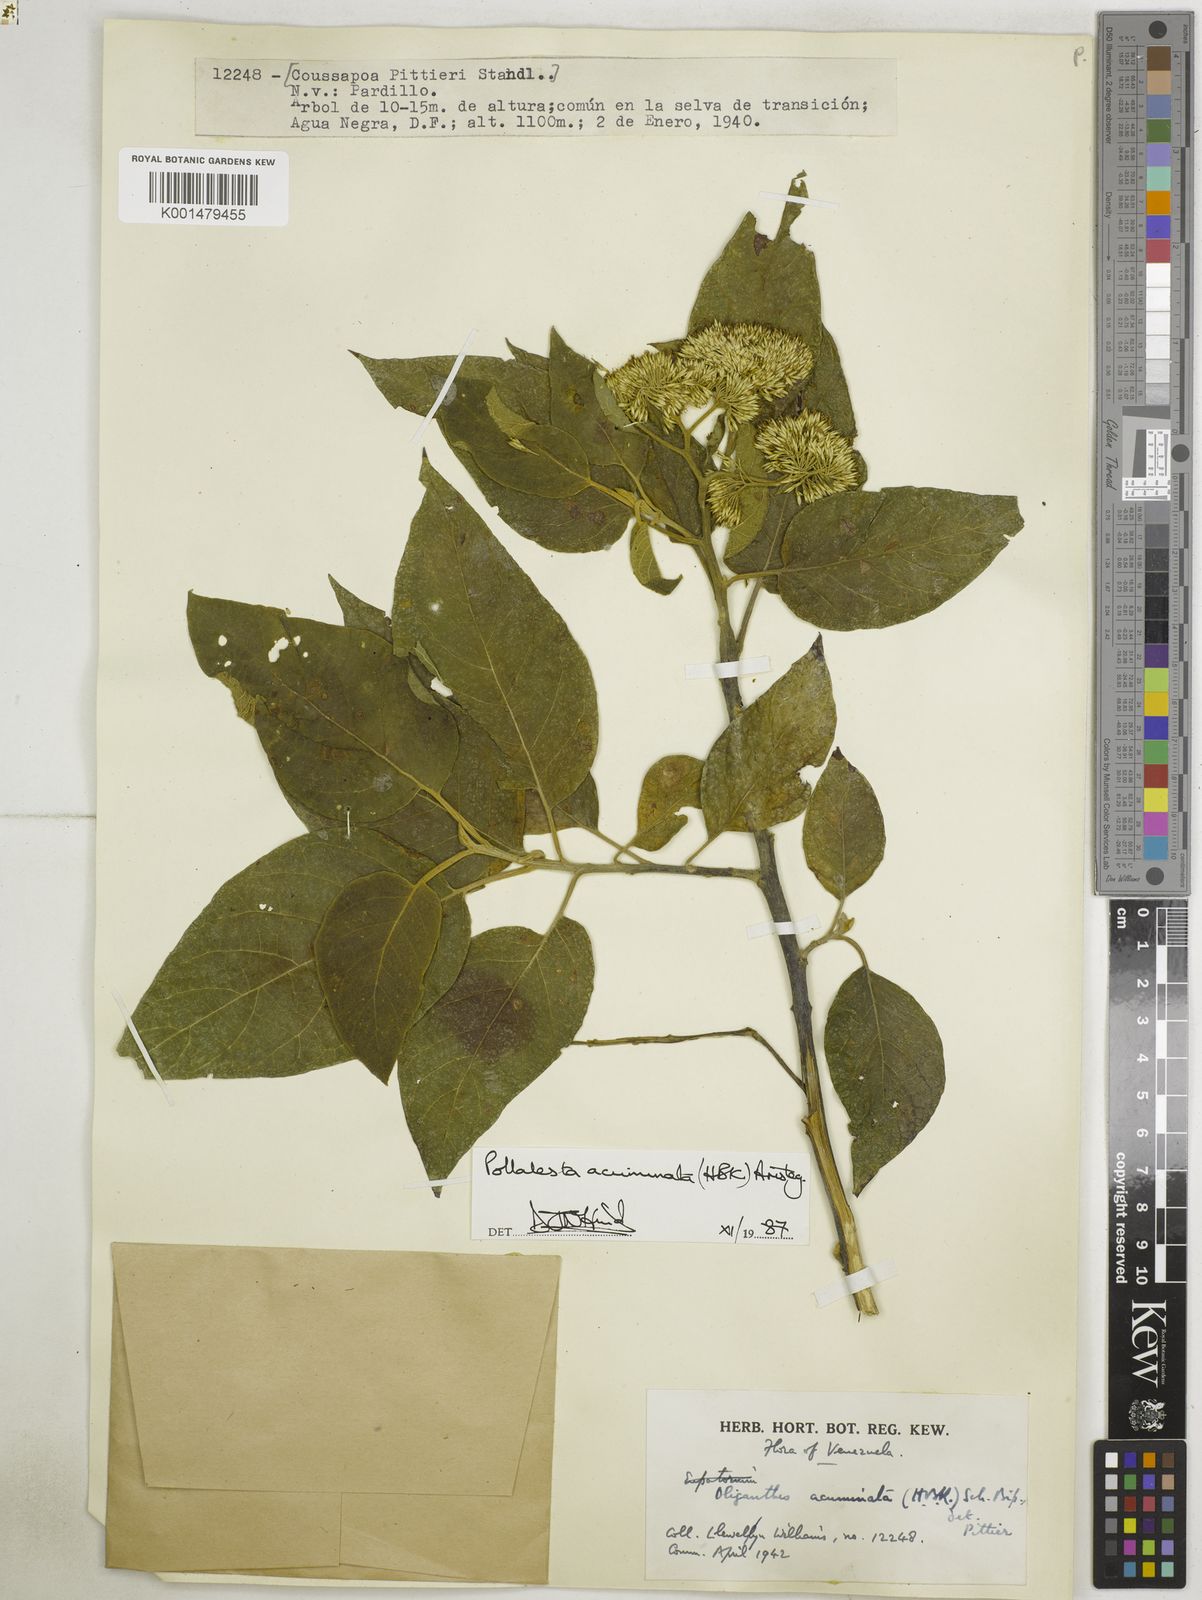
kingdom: Plantae
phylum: Tracheophyta
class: Magnoliopsida
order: Asterales
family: Asteraceae
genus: Piptocoma
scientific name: Piptocoma acuminata
